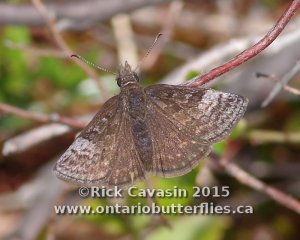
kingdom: Animalia
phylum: Arthropoda
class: Insecta
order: Lepidoptera
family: Hesperiidae
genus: Erynnis
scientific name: Erynnis icelus
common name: Dreamy Duskywing
